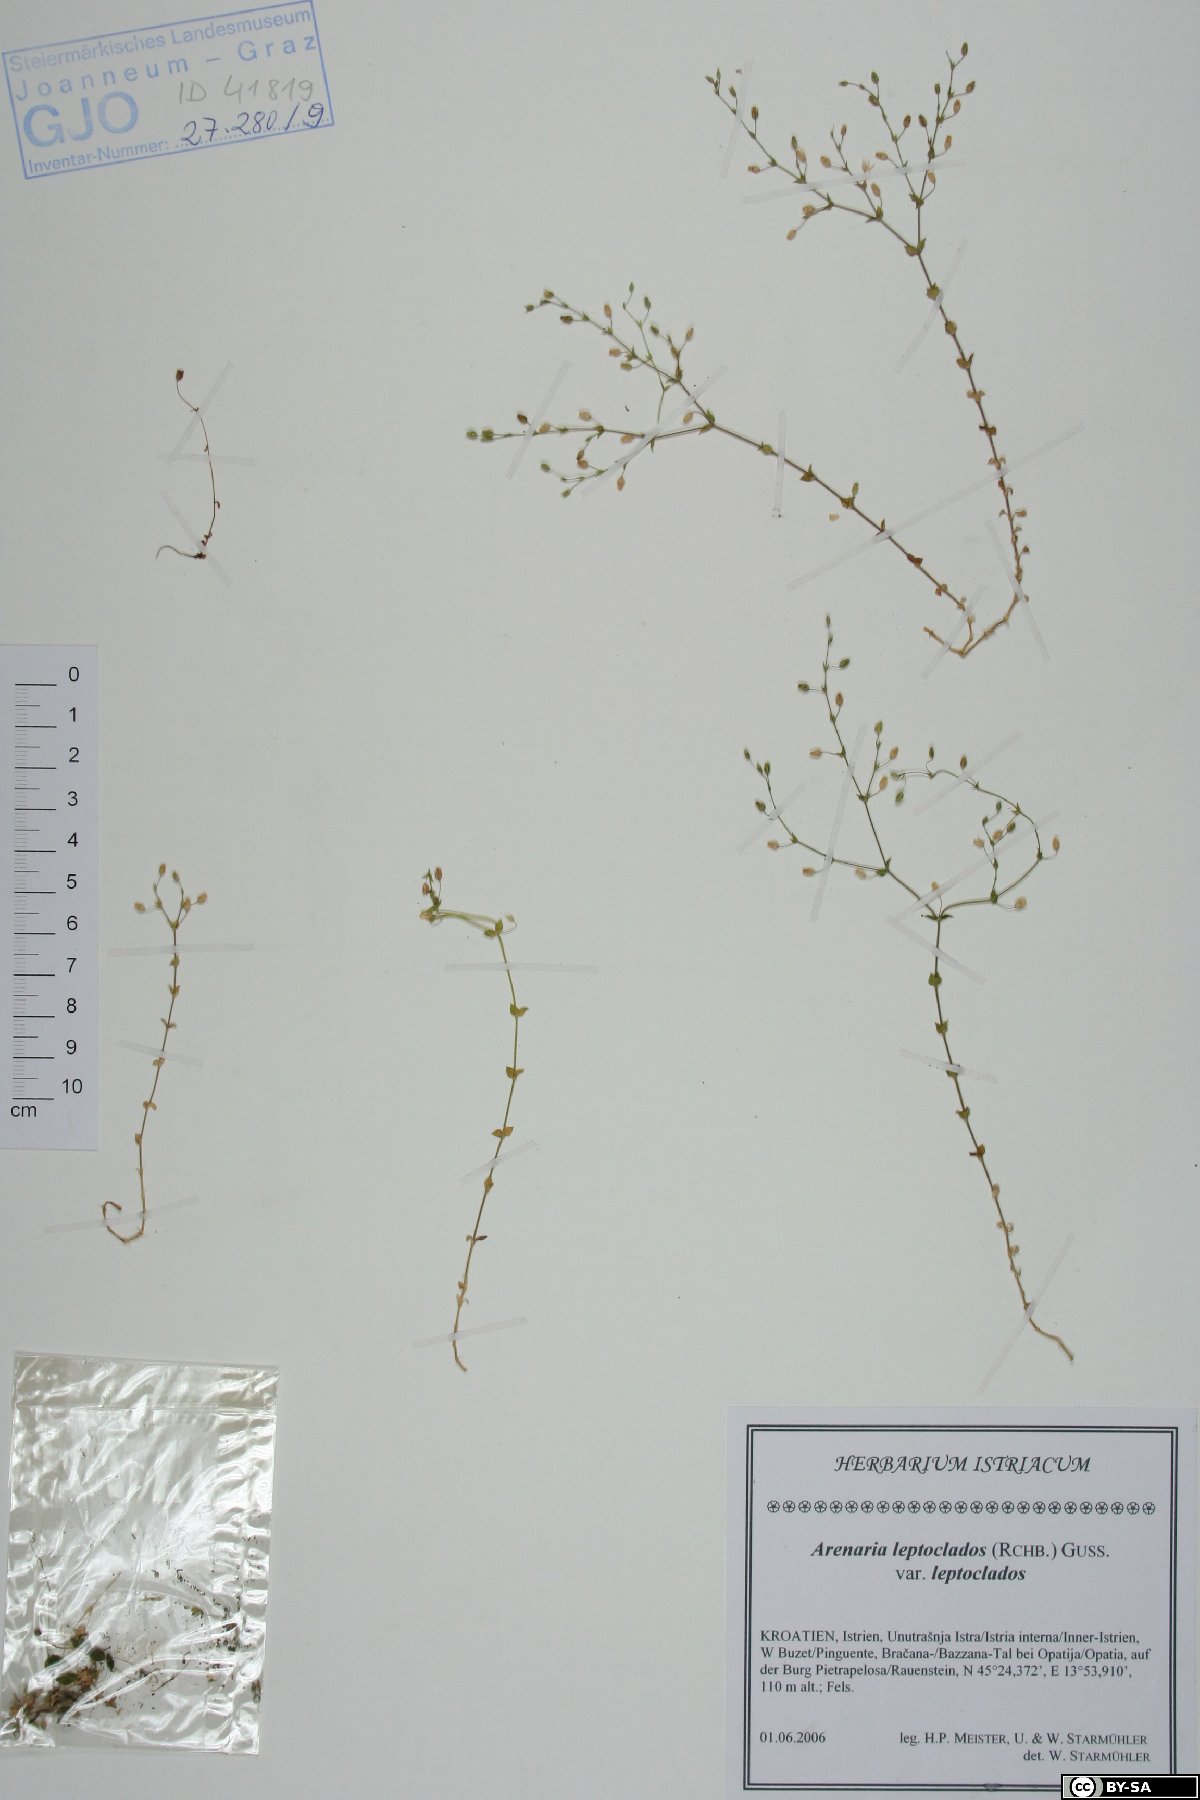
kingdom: Plantae
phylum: Tracheophyta
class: Magnoliopsida
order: Caryophyllales
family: Caryophyllaceae
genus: Arenaria
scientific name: Arenaria leptoclados
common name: Thyme-leaved sandwort
